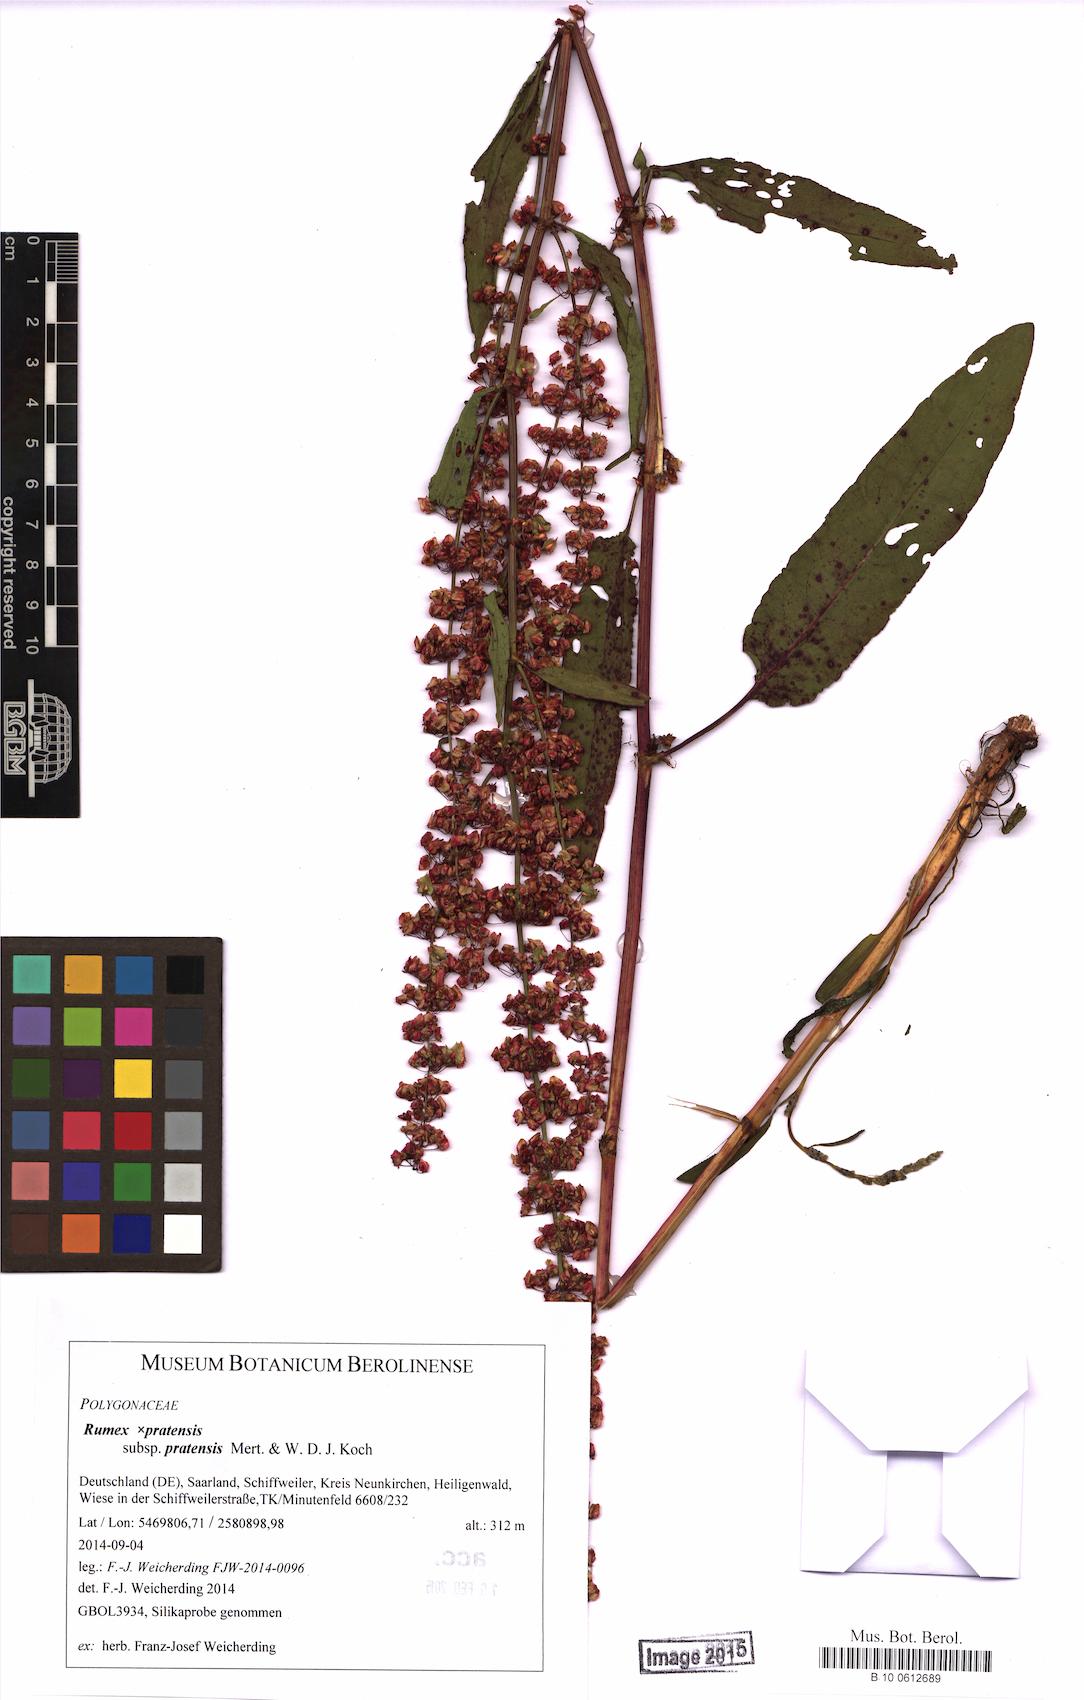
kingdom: Plantae
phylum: Tracheophyta
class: Magnoliopsida
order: Caryophyllales
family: Polygonaceae
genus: Rumex
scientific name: Rumex pratensis
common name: Knotweed
